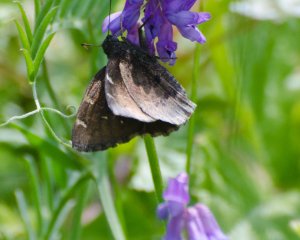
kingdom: Animalia
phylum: Arthropoda
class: Insecta
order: Lepidoptera
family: Hesperiidae
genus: Autochton
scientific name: Autochton
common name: Northern Cloudywing
